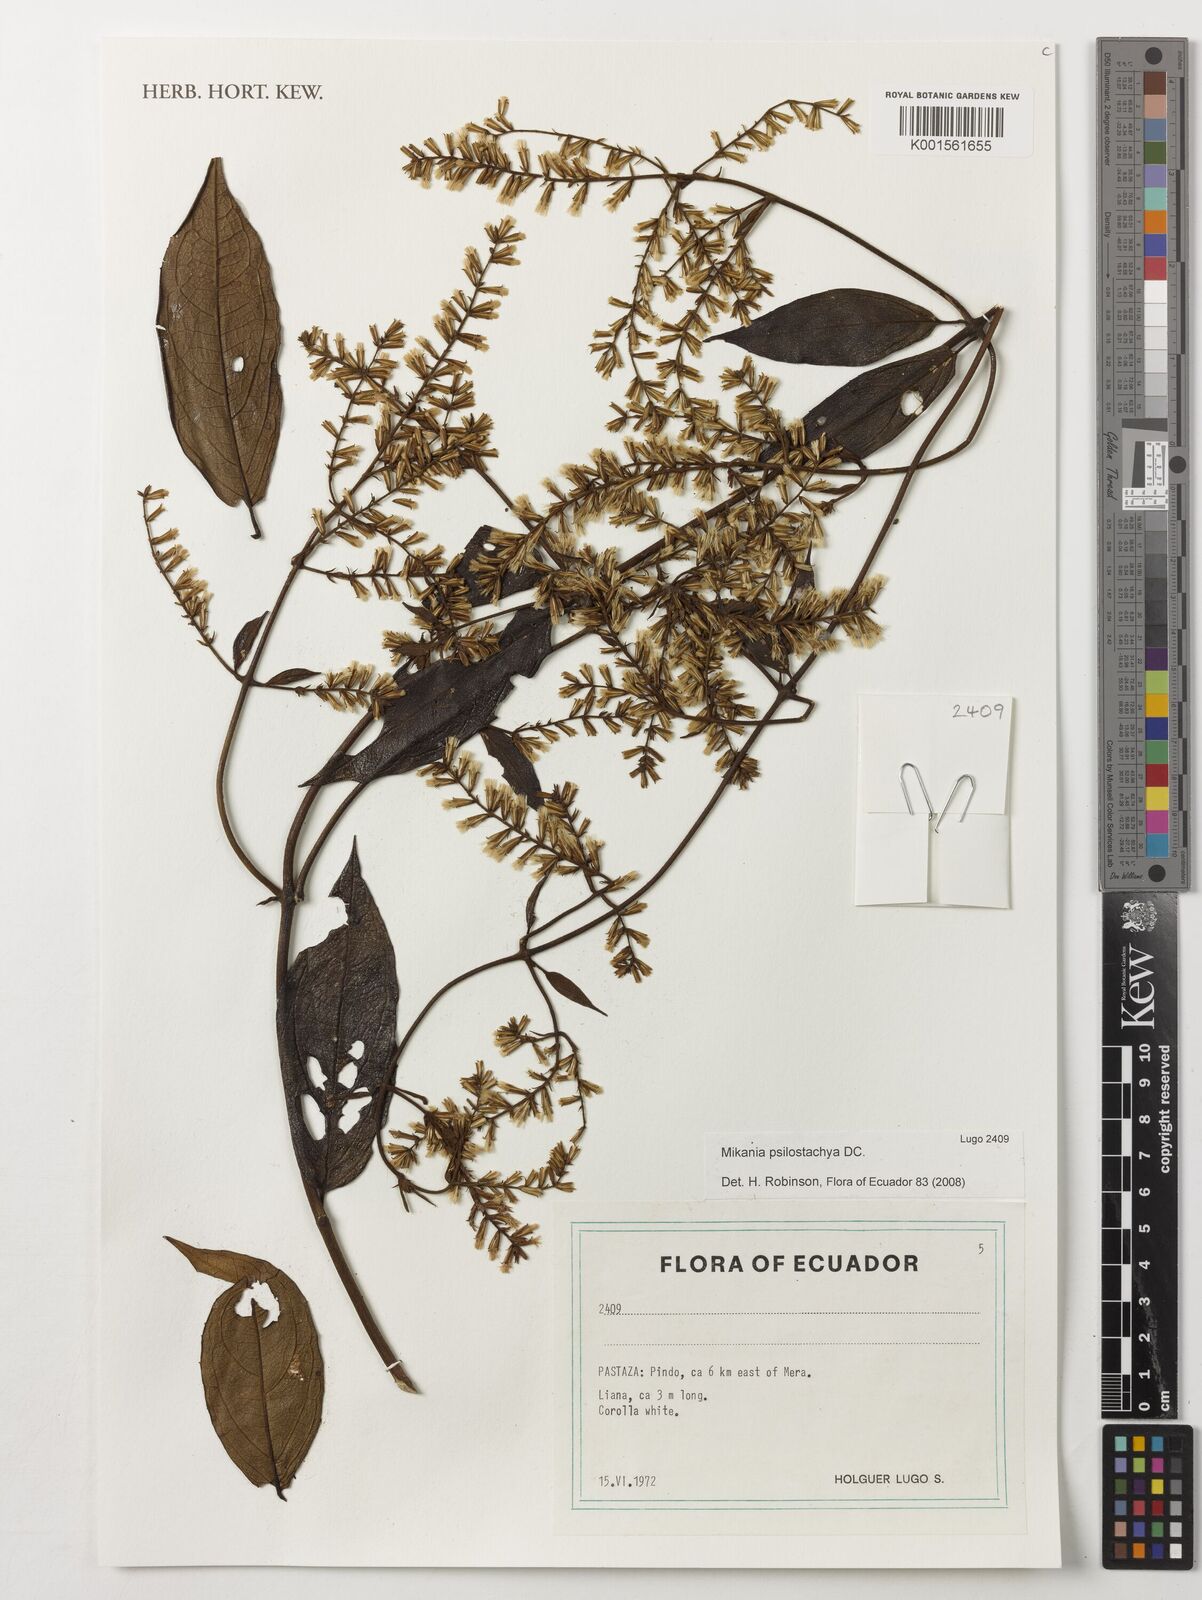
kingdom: Plantae
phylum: Tracheophyta
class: Magnoliopsida
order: Asterales
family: Asteraceae
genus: Mikania
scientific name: Mikania psilostachya
